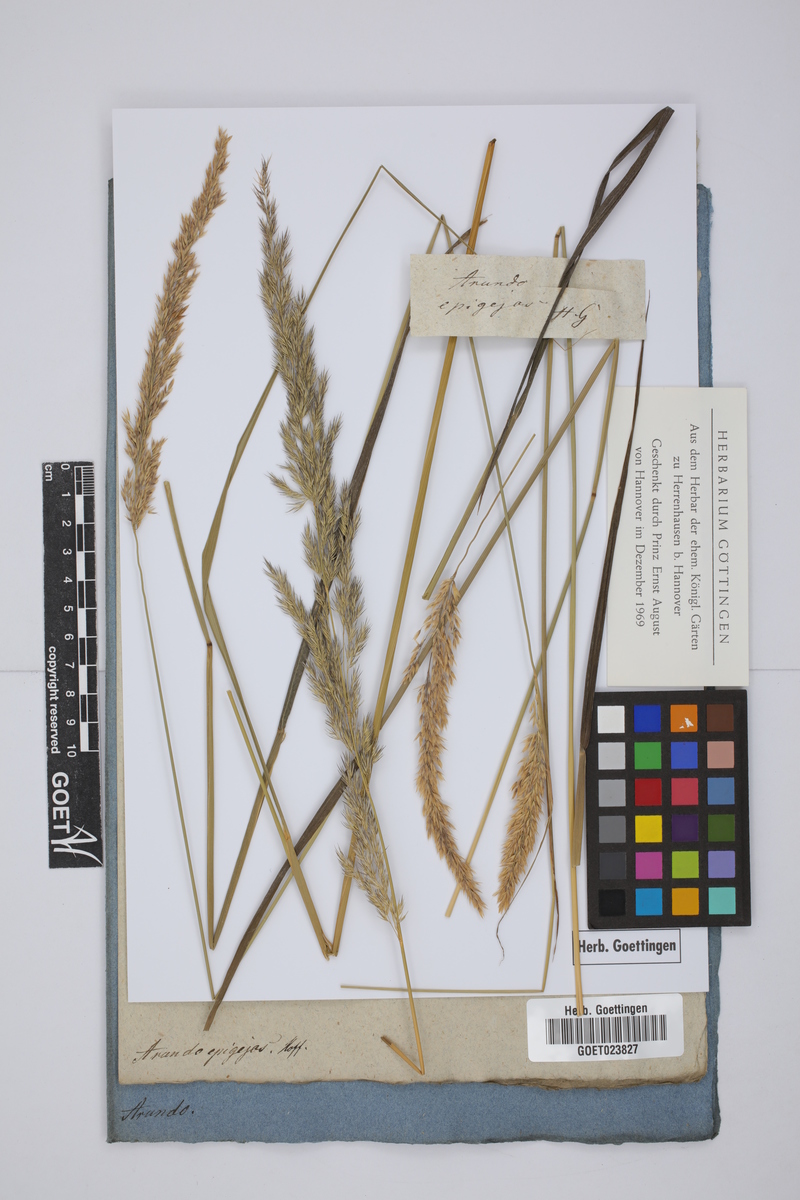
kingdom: Plantae
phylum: Tracheophyta
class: Liliopsida
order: Poales
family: Poaceae
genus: Imperata
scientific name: Imperata cylindrica
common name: Cogongrass
